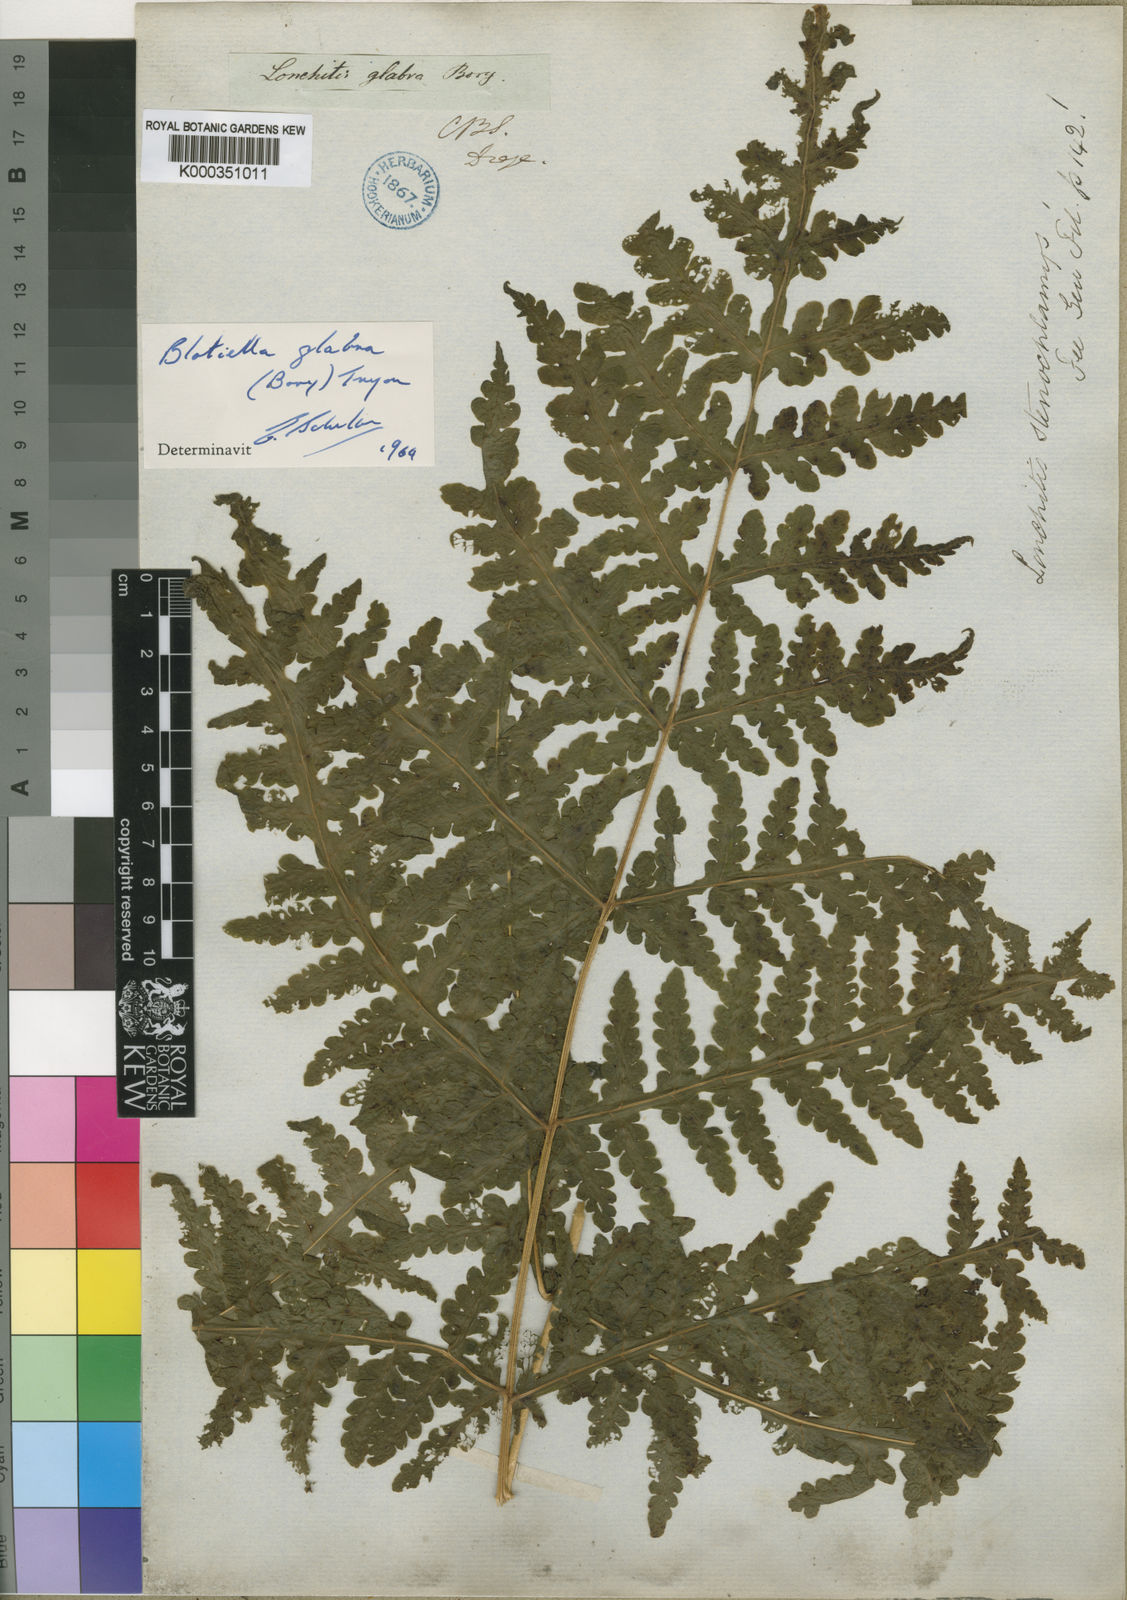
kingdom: Plantae
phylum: Tracheophyta
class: Polypodiopsida
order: Polypodiales
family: Dennstaedtiaceae
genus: Blotiella
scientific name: Blotiella glabra
